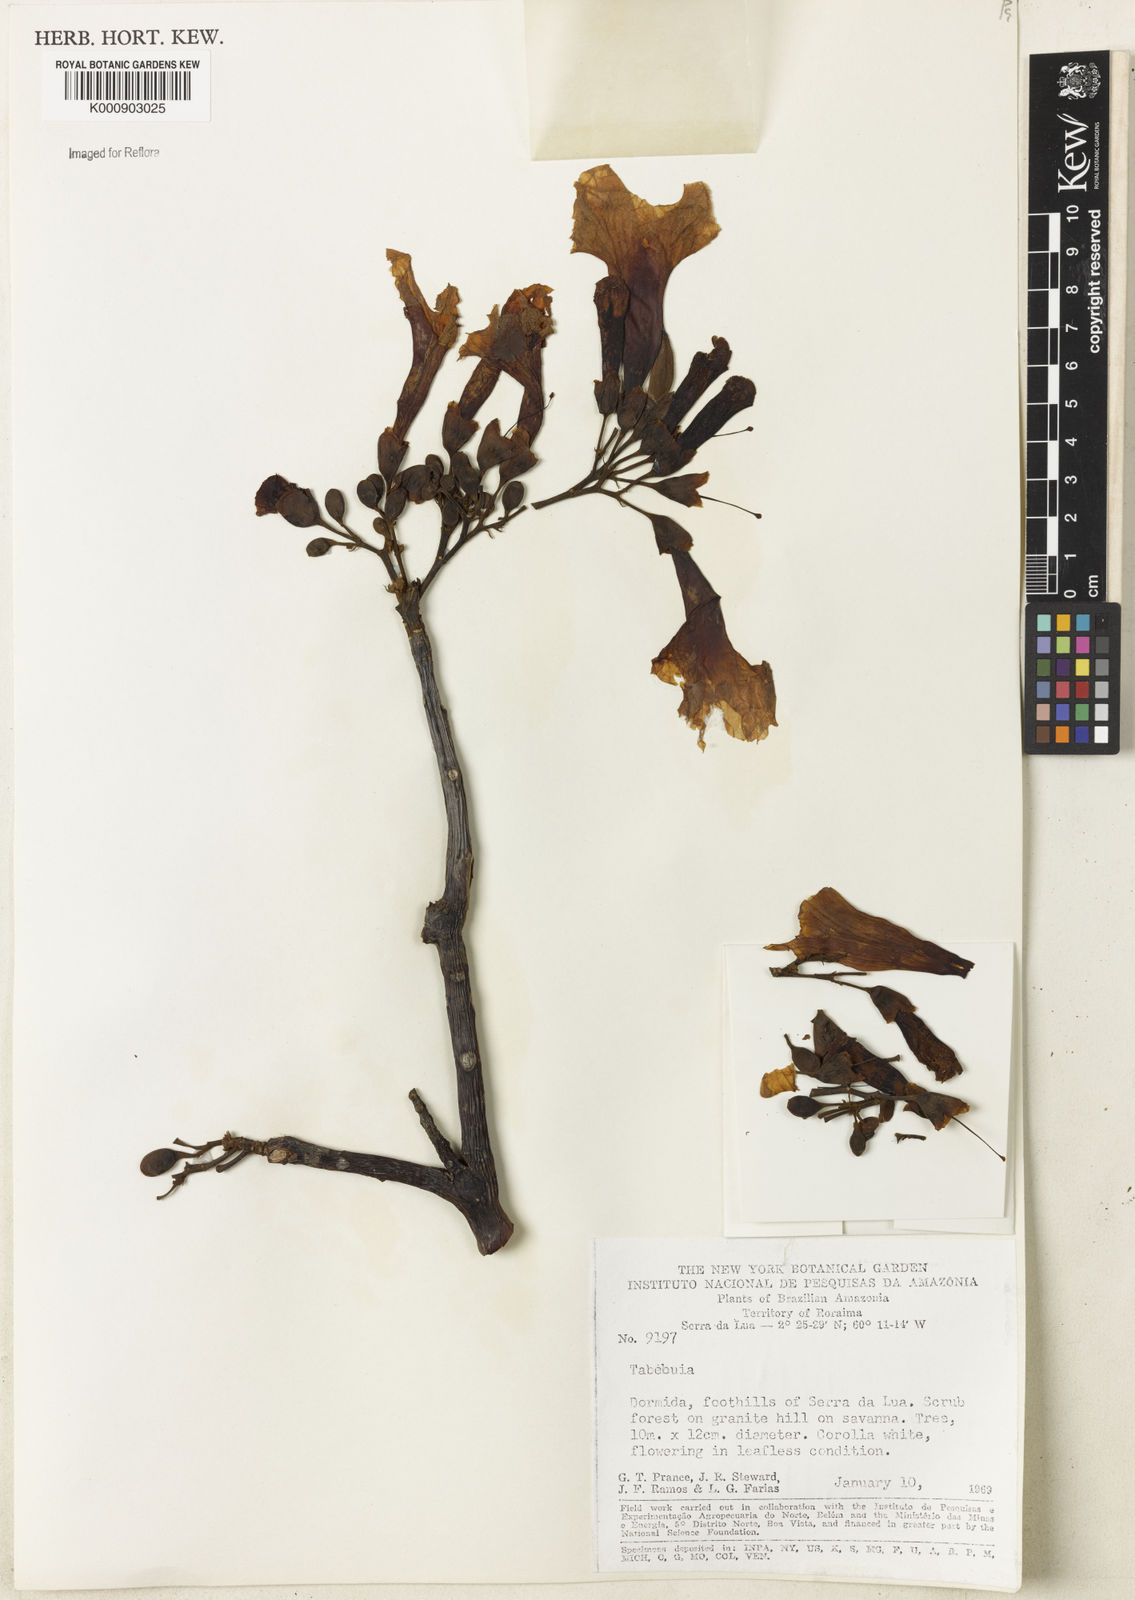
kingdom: Plantae
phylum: Tracheophyta
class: Magnoliopsida
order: Lamiales
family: Bignoniaceae
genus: Tabebuia
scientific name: Tabebuia
